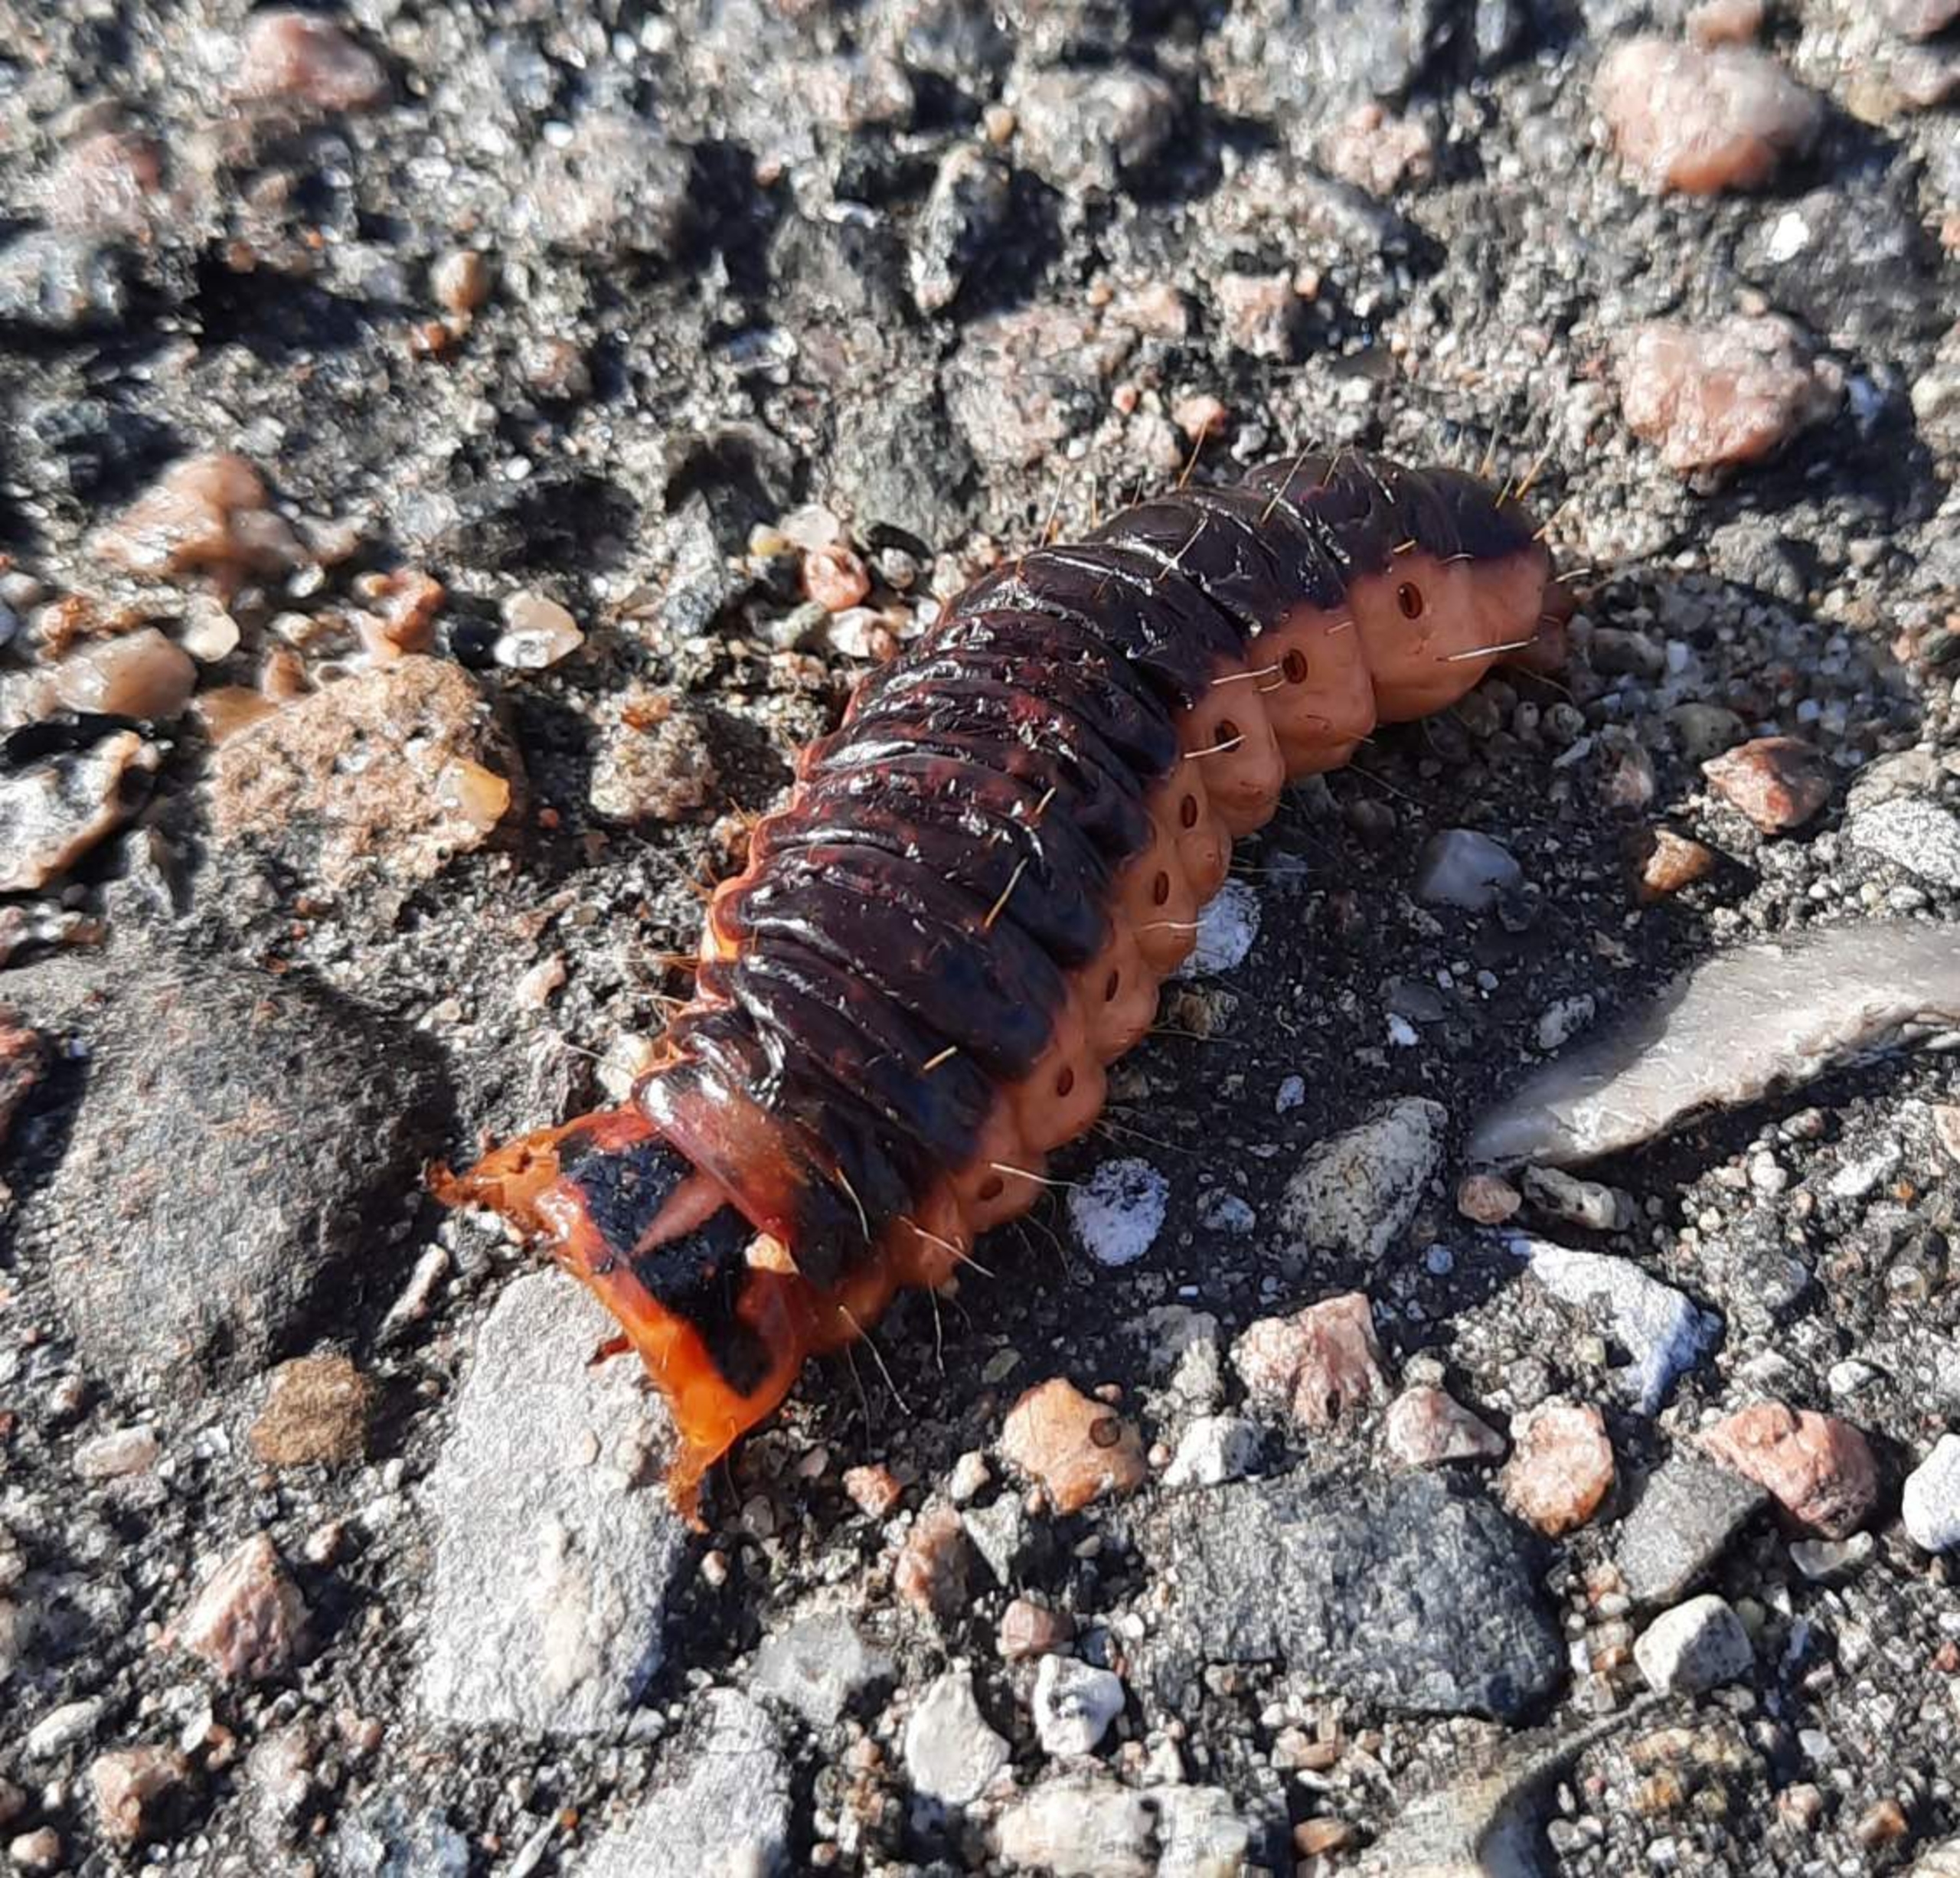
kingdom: Animalia
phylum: Arthropoda
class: Insecta
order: Lepidoptera
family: Cossidae
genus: Cossus
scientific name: Cossus cossus
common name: Pileborer
